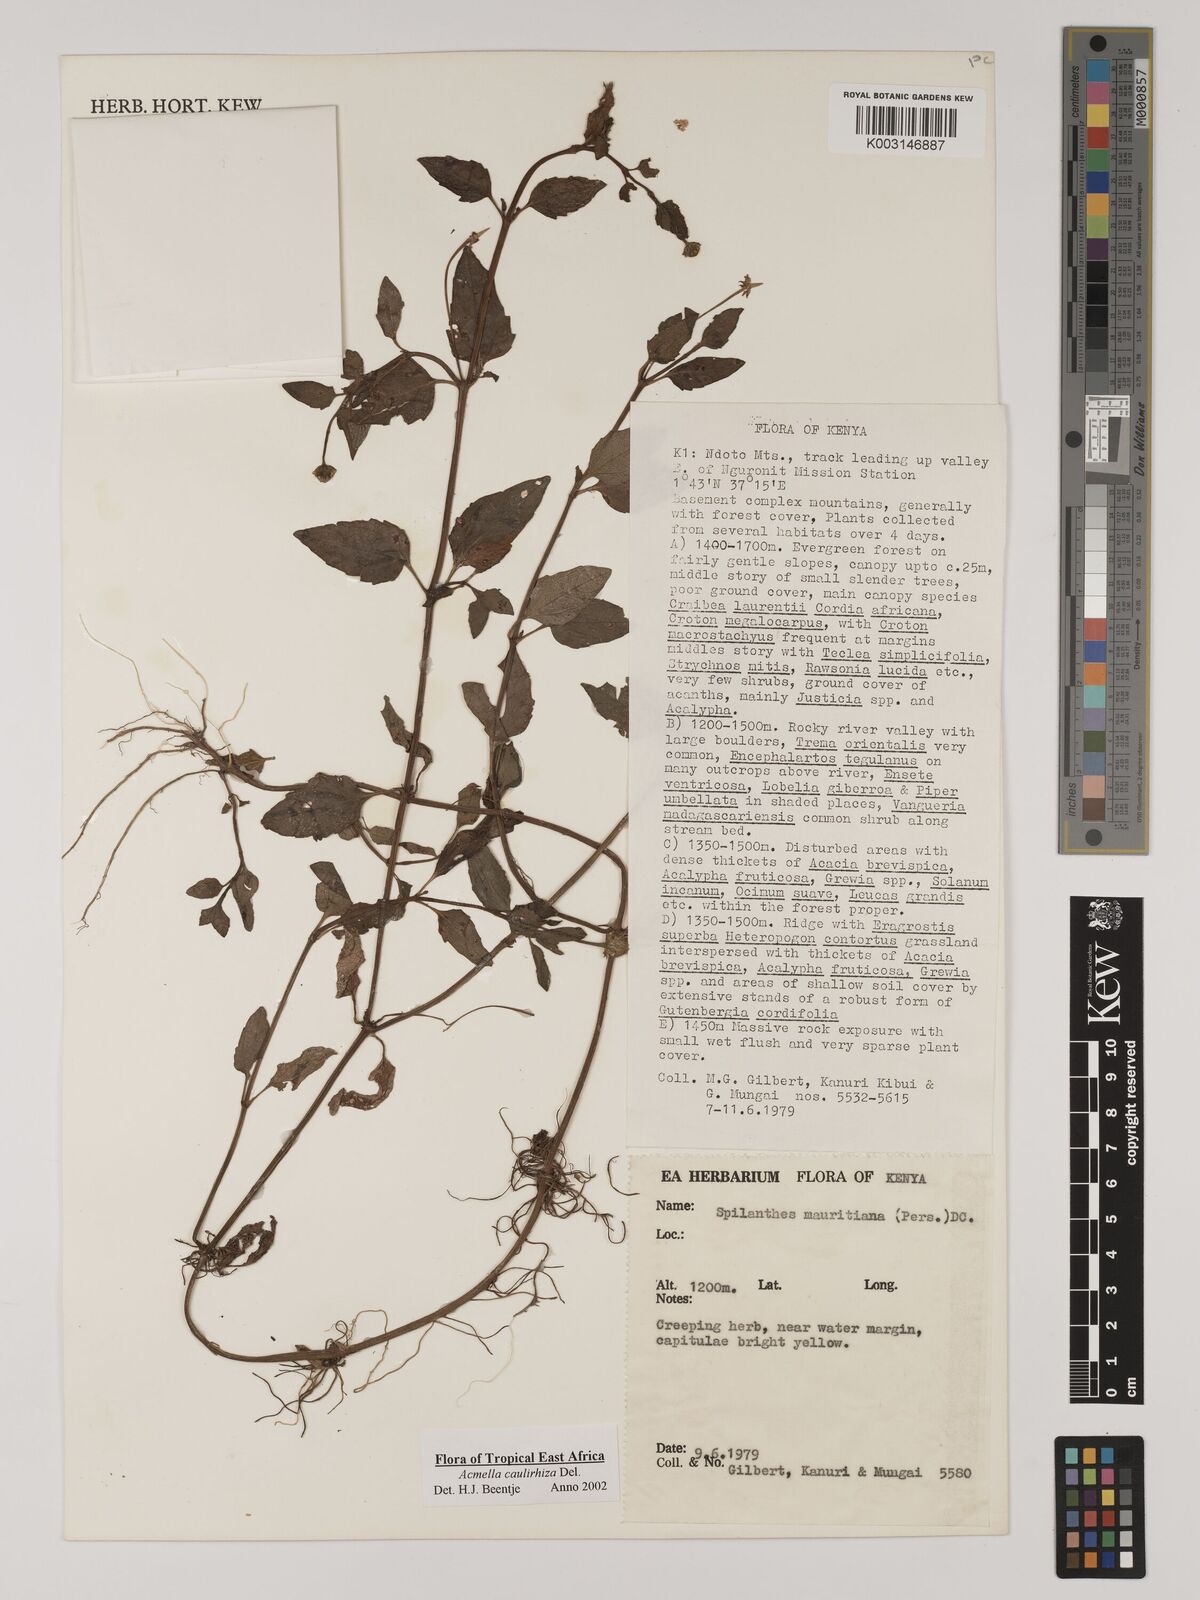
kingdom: Plantae
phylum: Tracheophyta
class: Magnoliopsida
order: Asterales
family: Asteraceae
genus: Acmella
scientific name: Acmella caulirhiza
